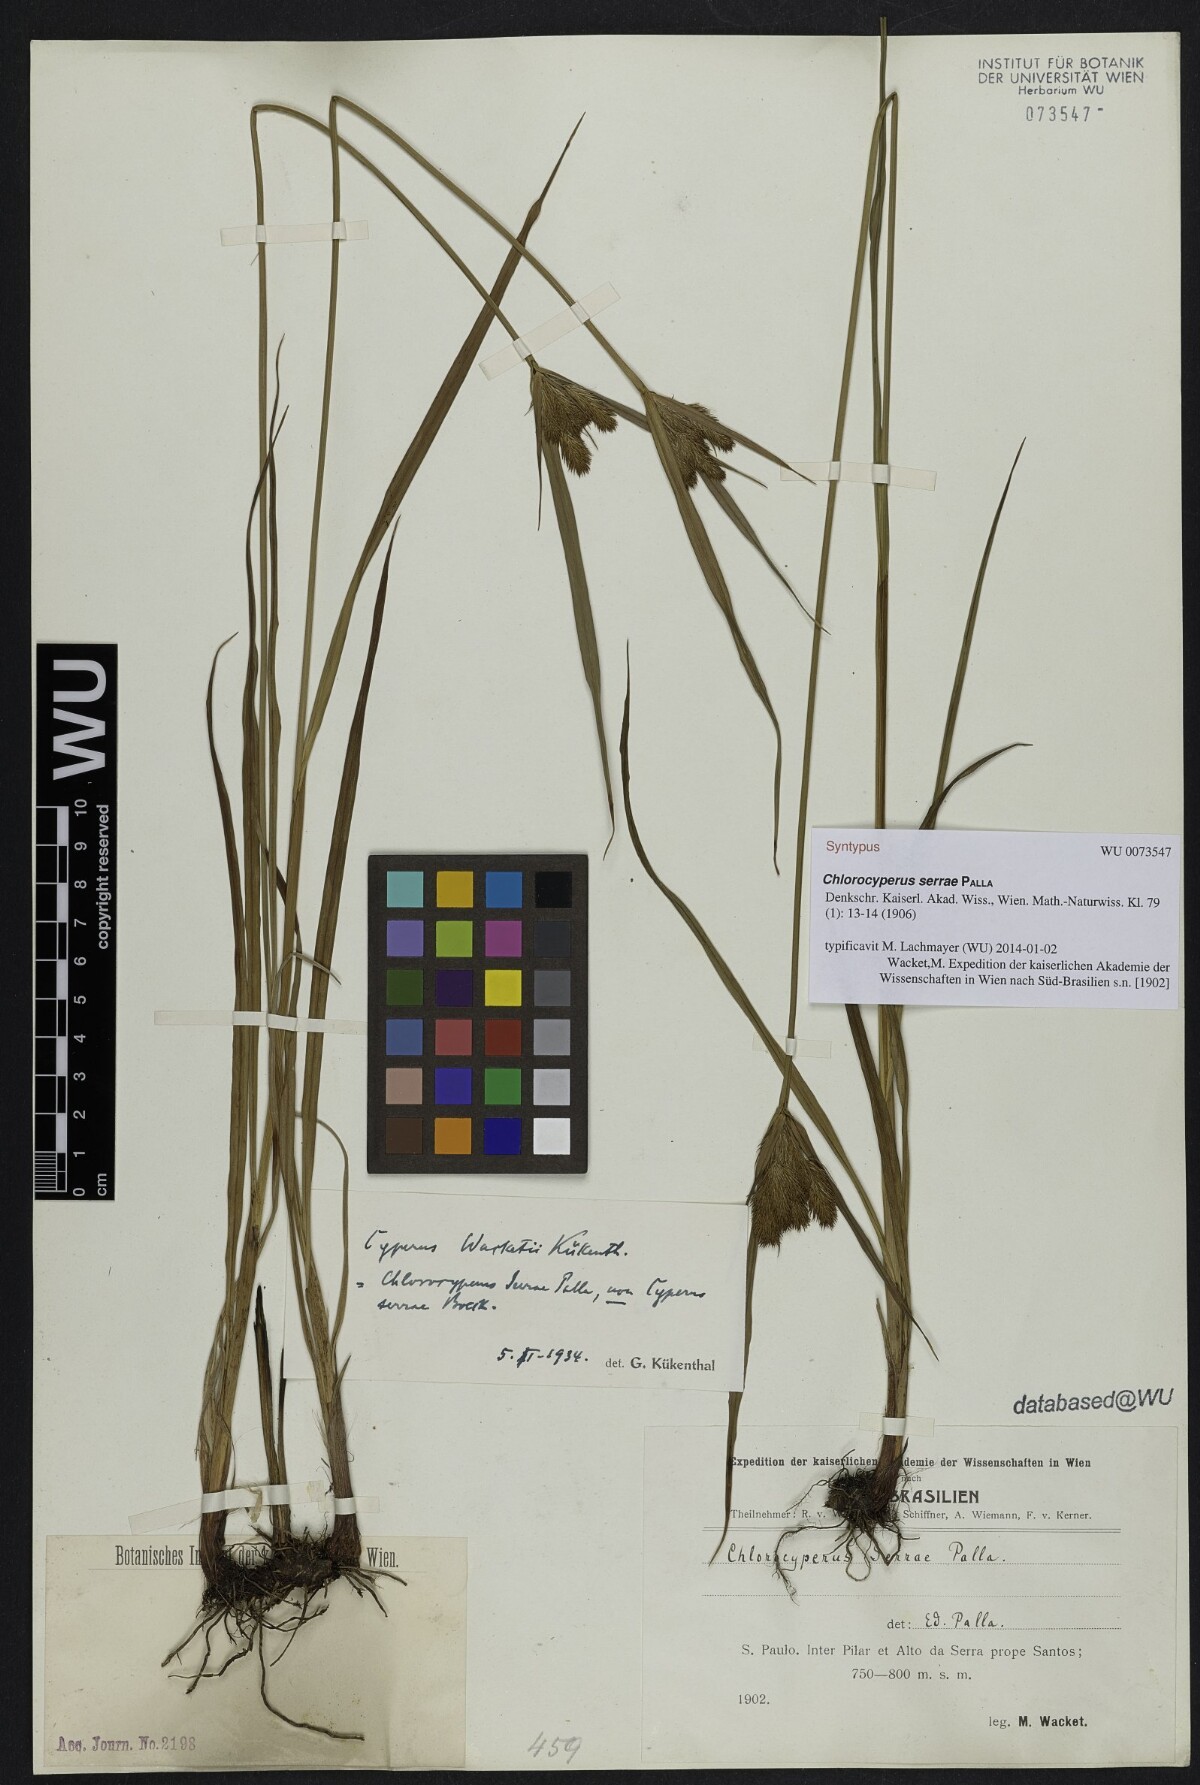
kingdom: Plantae
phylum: Tracheophyta
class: Liliopsida
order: Poales
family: Cyperaceae
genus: Cyperus
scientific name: Cyperus rigens
